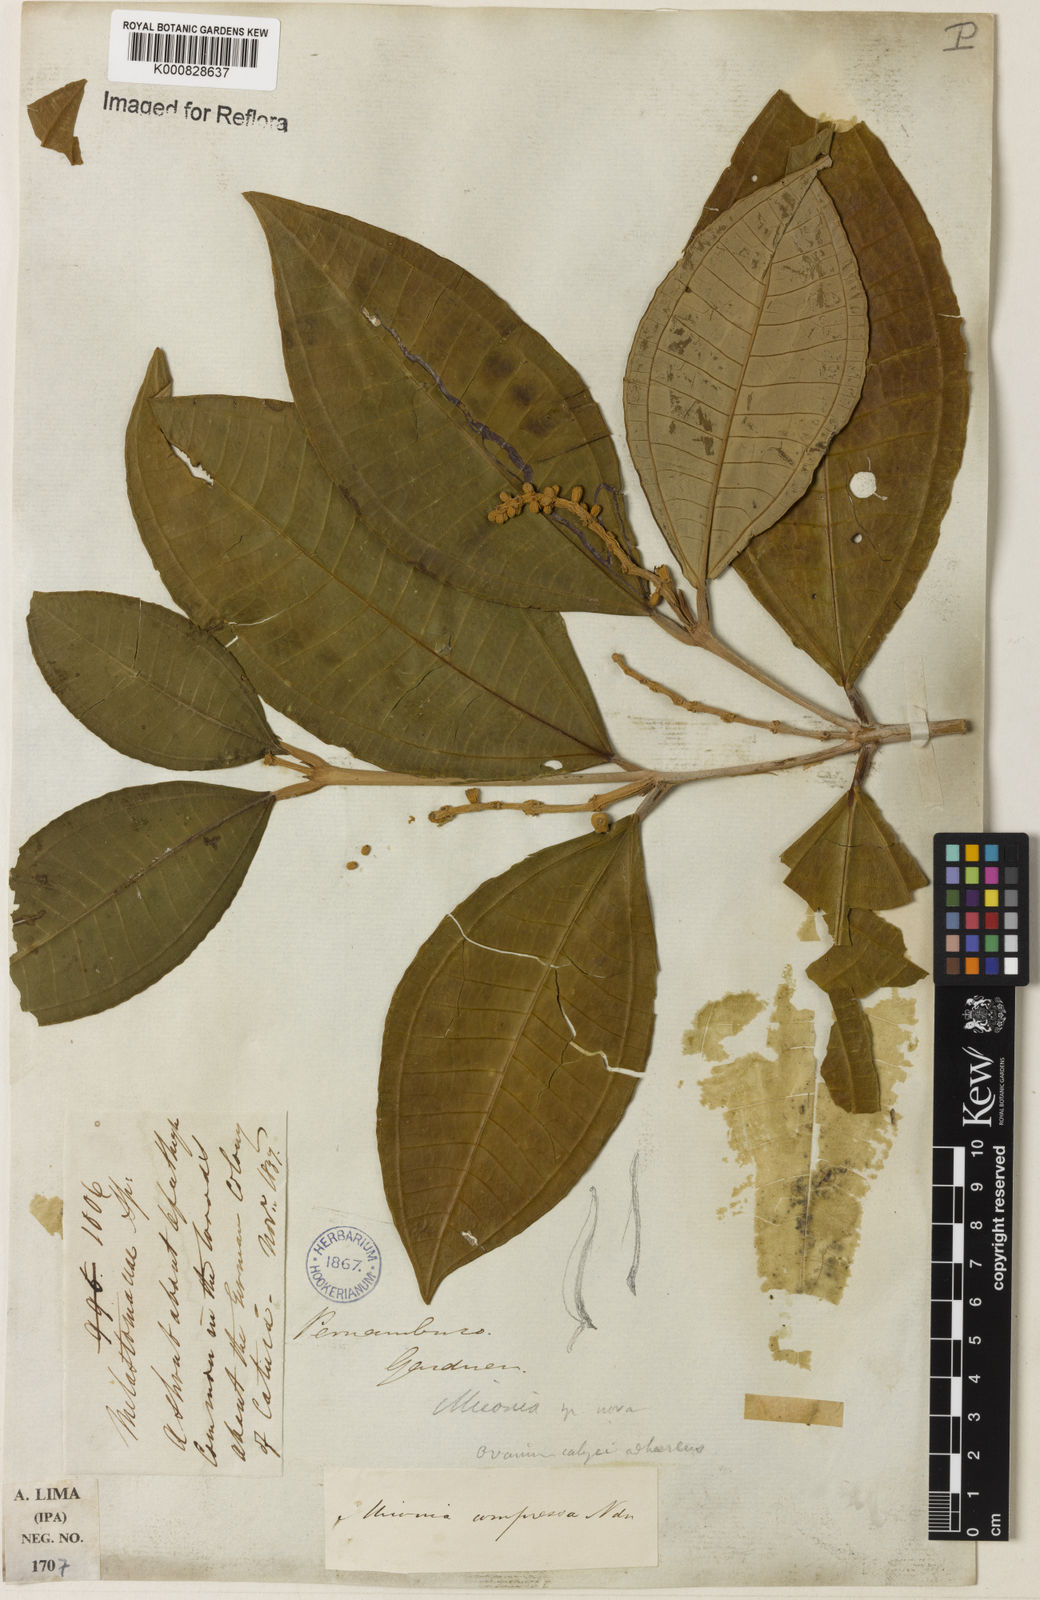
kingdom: Plantae
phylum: Tracheophyta
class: Magnoliopsida
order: Myrtales
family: Melastomataceae
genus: Miconia
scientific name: Miconia compressa
